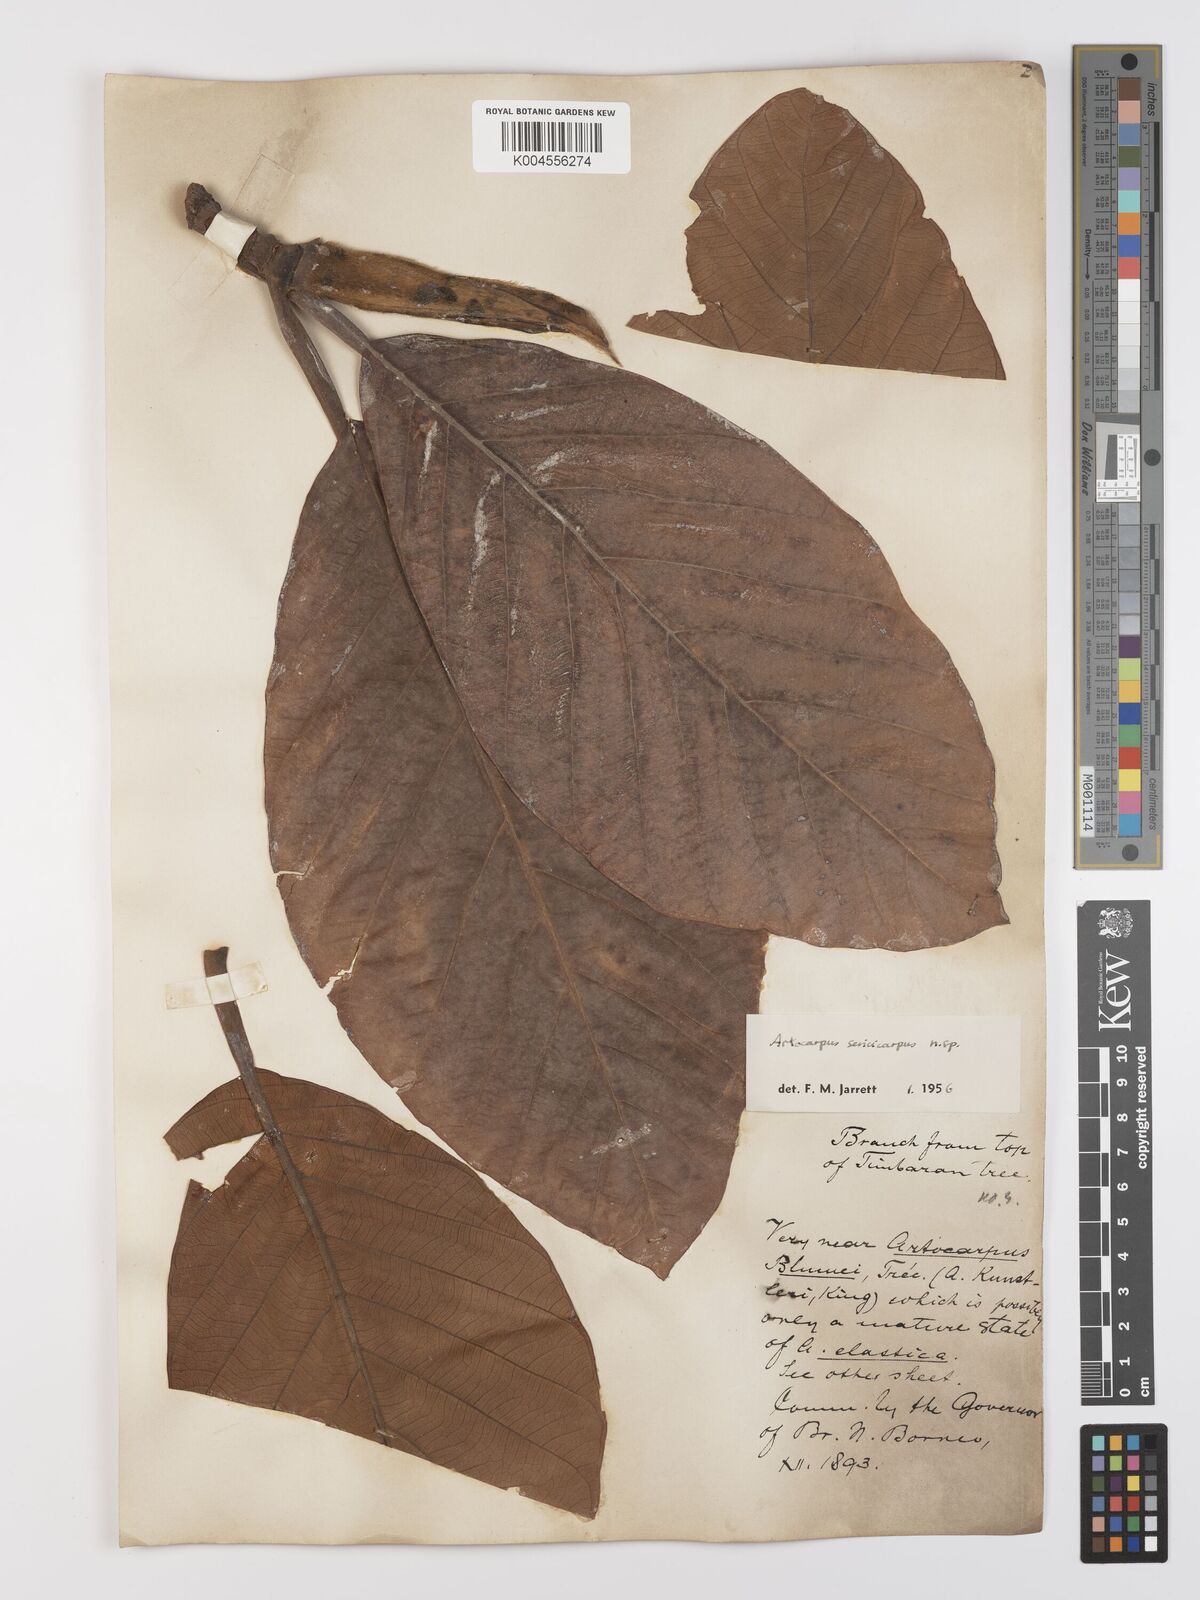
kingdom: Plantae
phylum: Tracheophyta
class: Magnoliopsida
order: Rosales
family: Moraceae
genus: Artocarpus
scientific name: Artocarpus sericicarpus
